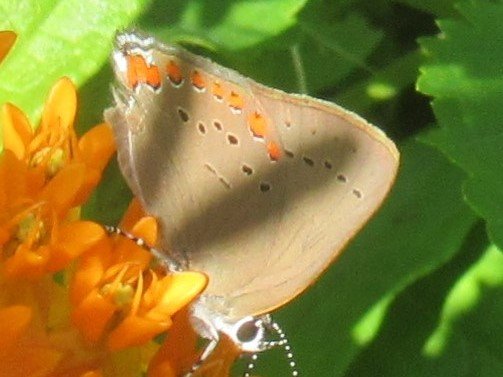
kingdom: Animalia
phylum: Arthropoda
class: Insecta
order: Lepidoptera
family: Lycaenidae
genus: Harkenclenus
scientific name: Harkenclenus titus
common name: Coral Hairstreak
